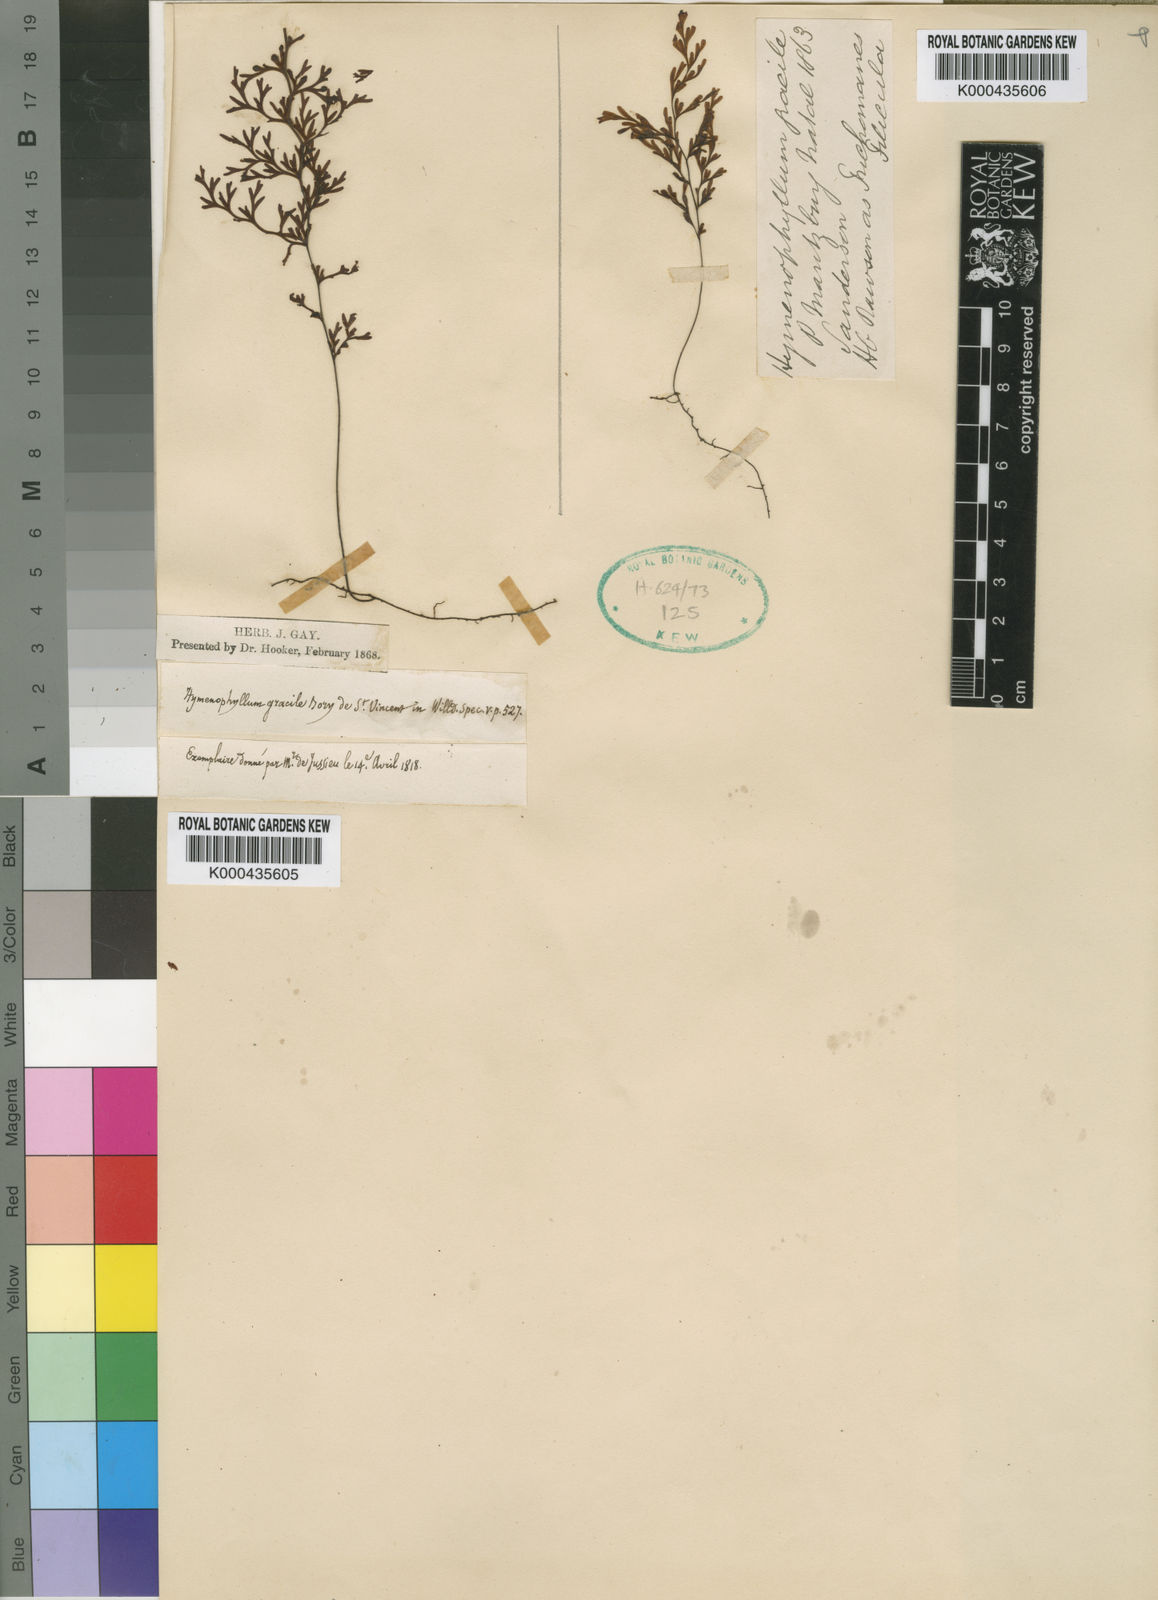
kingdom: Plantae
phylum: Tracheophyta
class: Polypodiopsida
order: Hymenophyllales
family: Hymenophyllaceae
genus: Hymenophyllum
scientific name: Hymenophyllum inaequale
